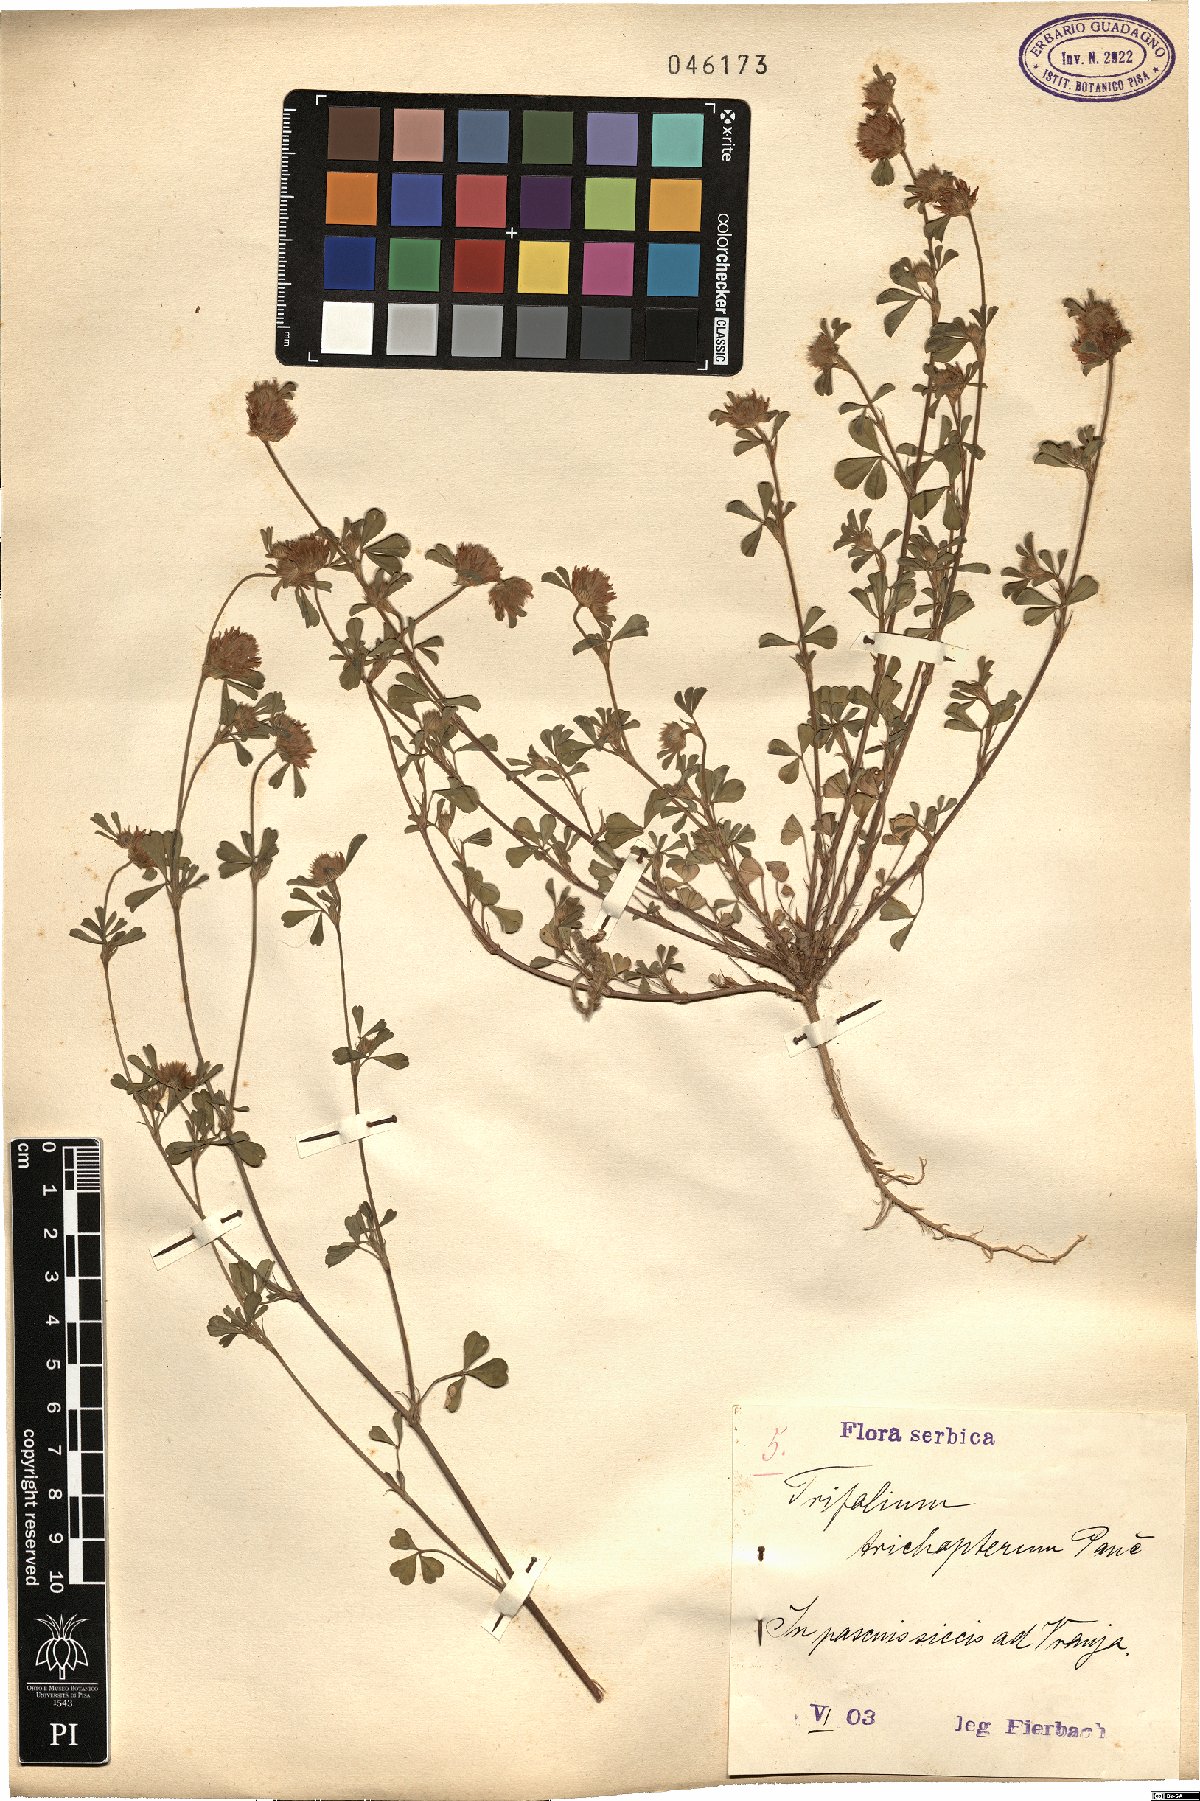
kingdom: Plantae
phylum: Tracheophyta
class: Magnoliopsida
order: Fabales
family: Fabaceae
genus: Trifolium
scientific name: Trifolium trichopterum
